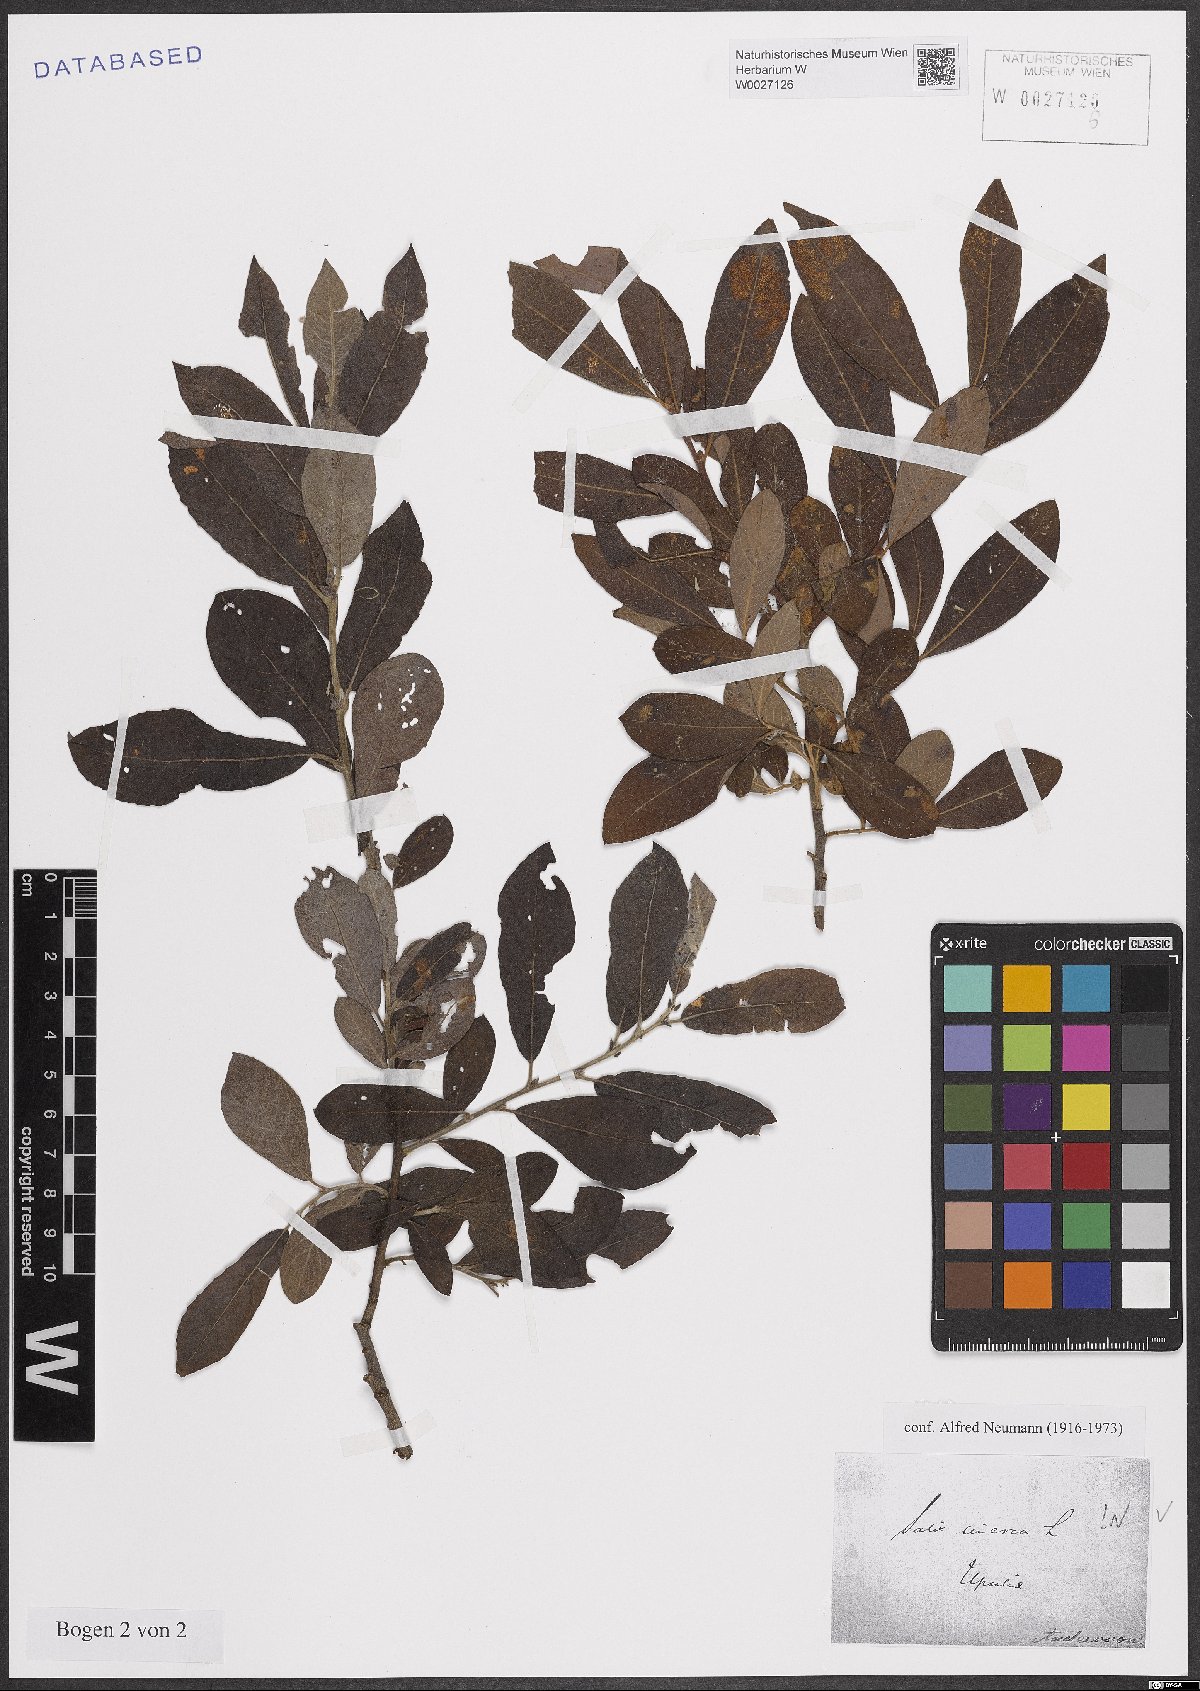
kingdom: Plantae
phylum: Tracheophyta
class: Magnoliopsida
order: Malpighiales
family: Salicaceae
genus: Salix
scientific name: Salix cinerea
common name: Common sallow
